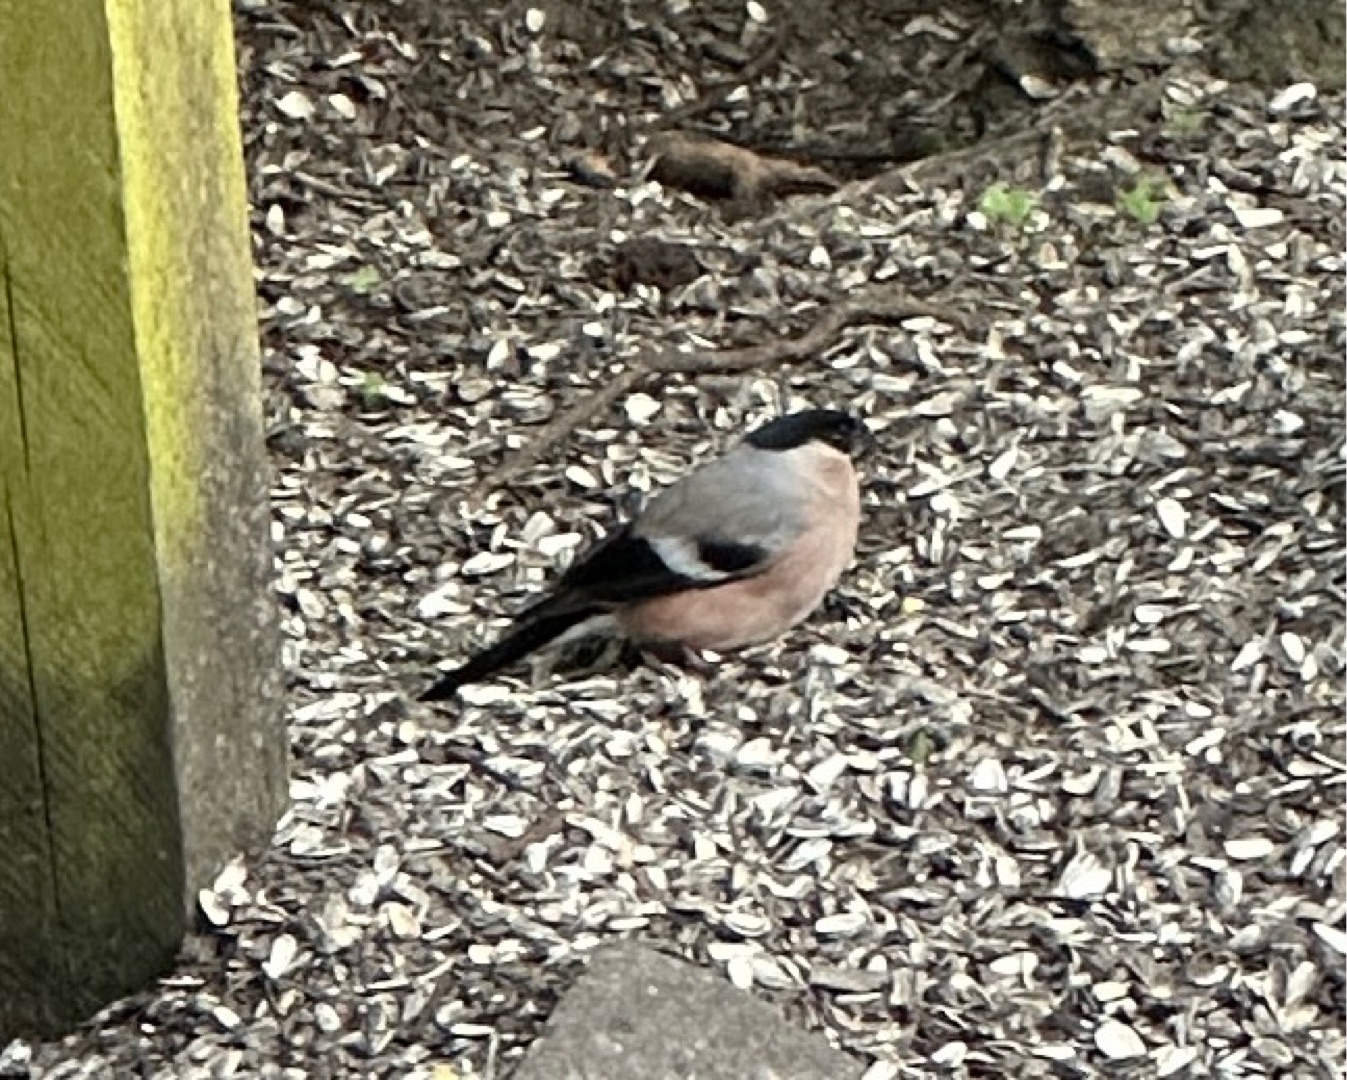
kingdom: Animalia
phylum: Chordata
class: Aves
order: Passeriformes
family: Fringillidae
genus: Pyrrhula
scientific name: Pyrrhula pyrrhula
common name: Dompap
